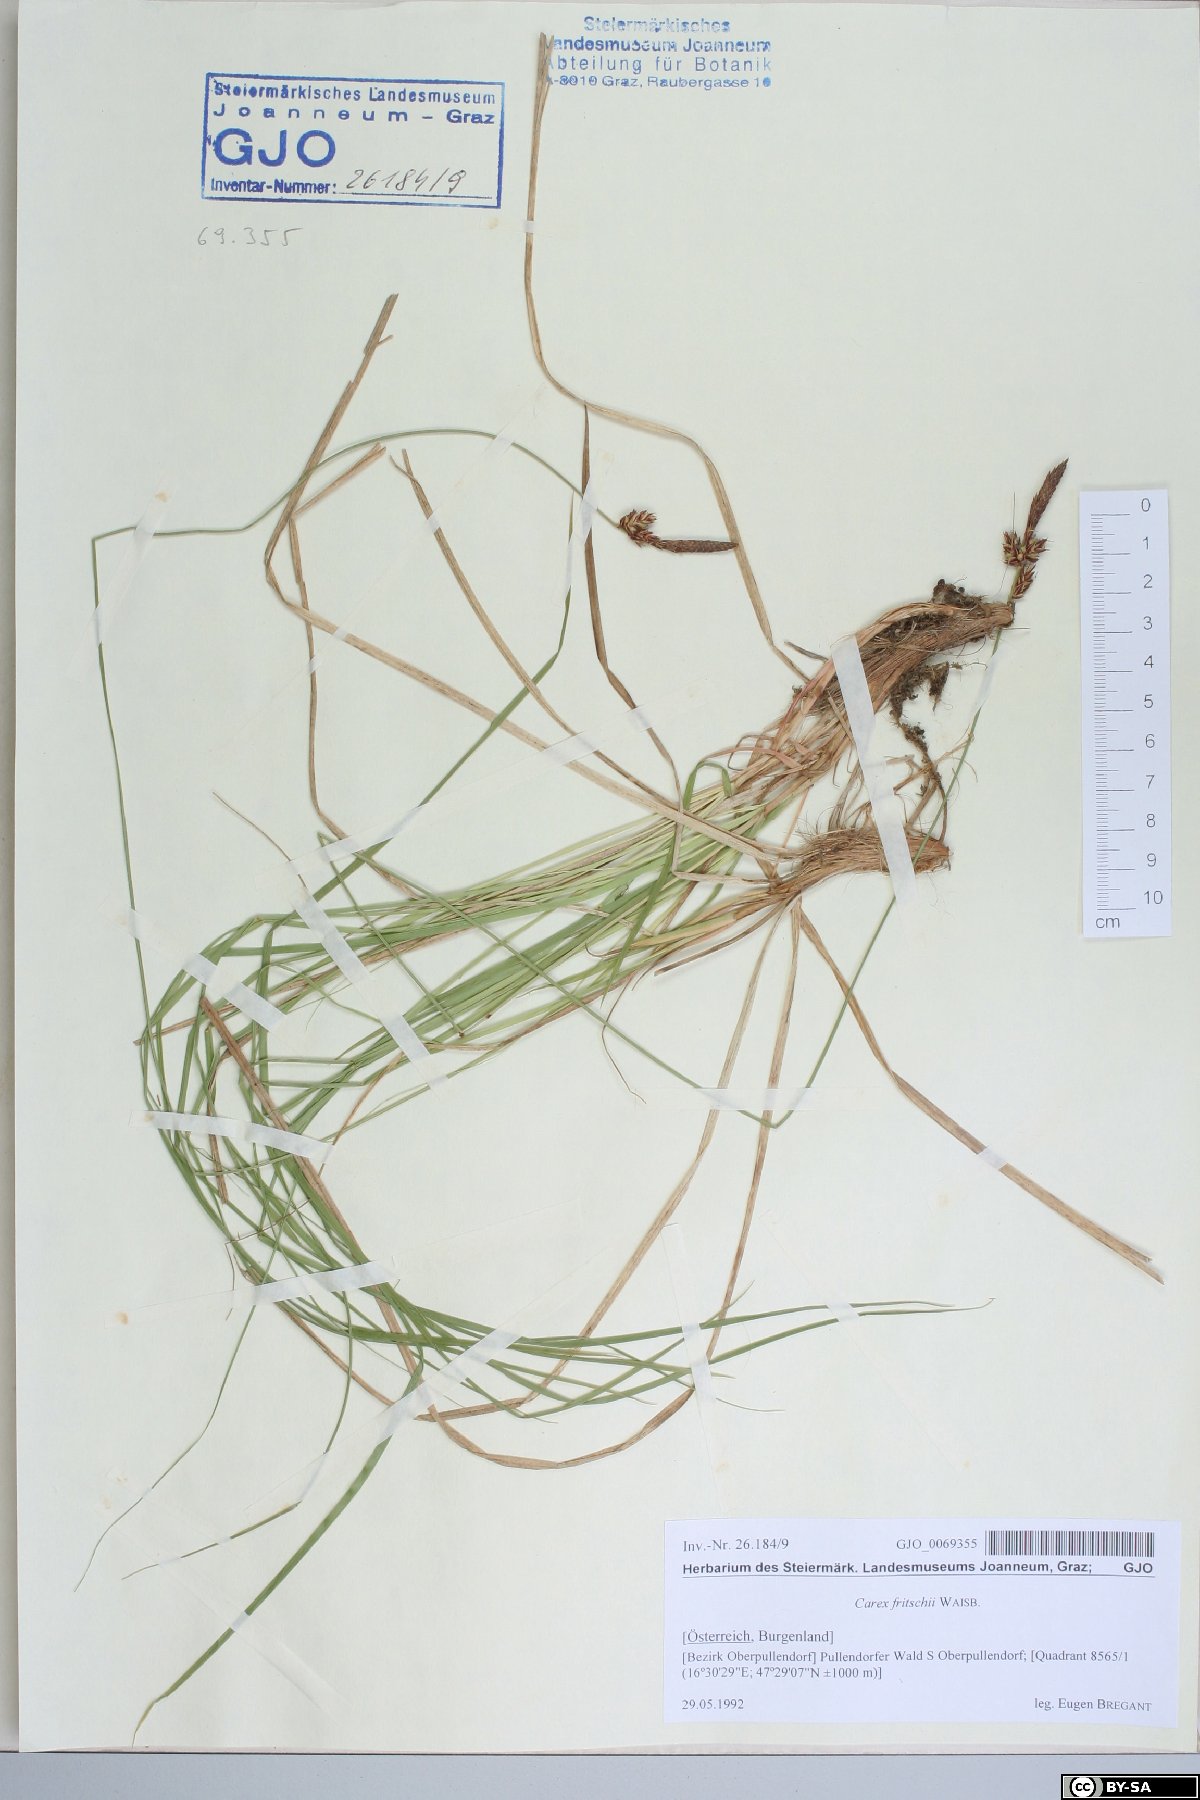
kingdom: Plantae
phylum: Tracheophyta
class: Liliopsida
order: Poales
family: Cyperaceae
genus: Carex
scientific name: Carex fritschii
